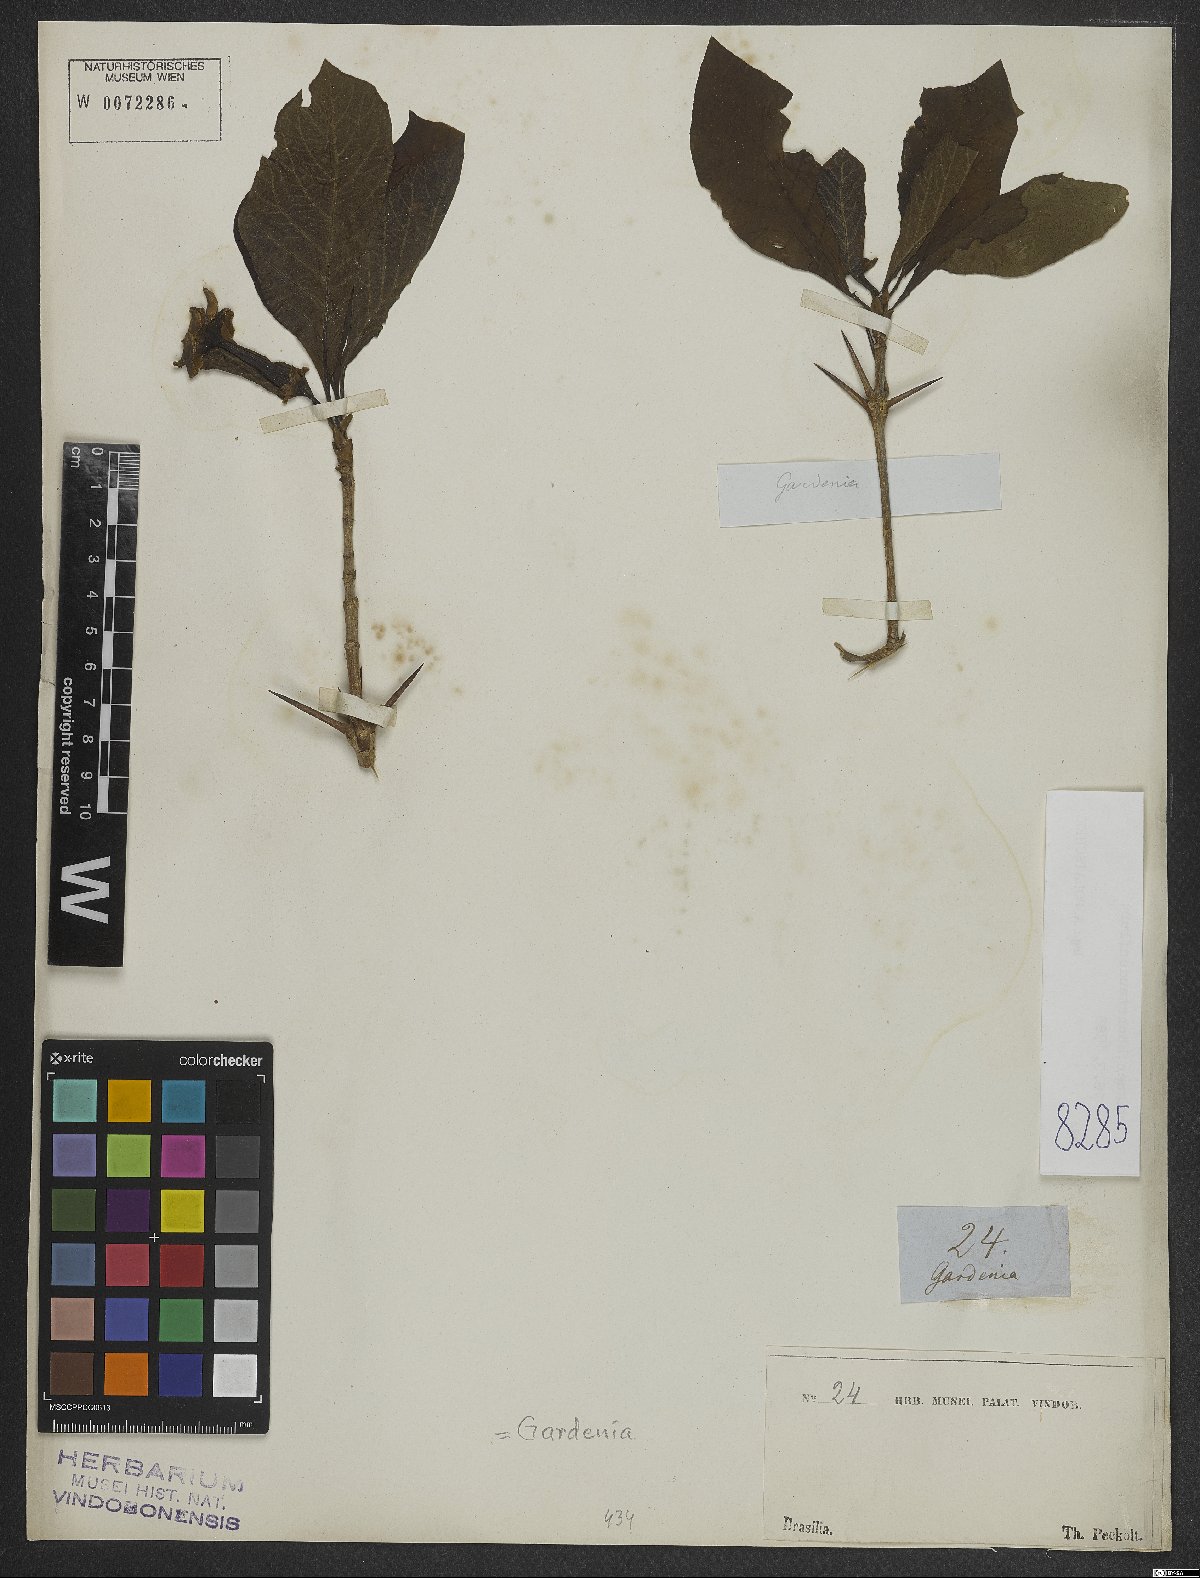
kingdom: Plantae
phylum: Tracheophyta
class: Magnoliopsida
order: Gentianales
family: Rubiaceae
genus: Gardenia
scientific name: Gardenia
